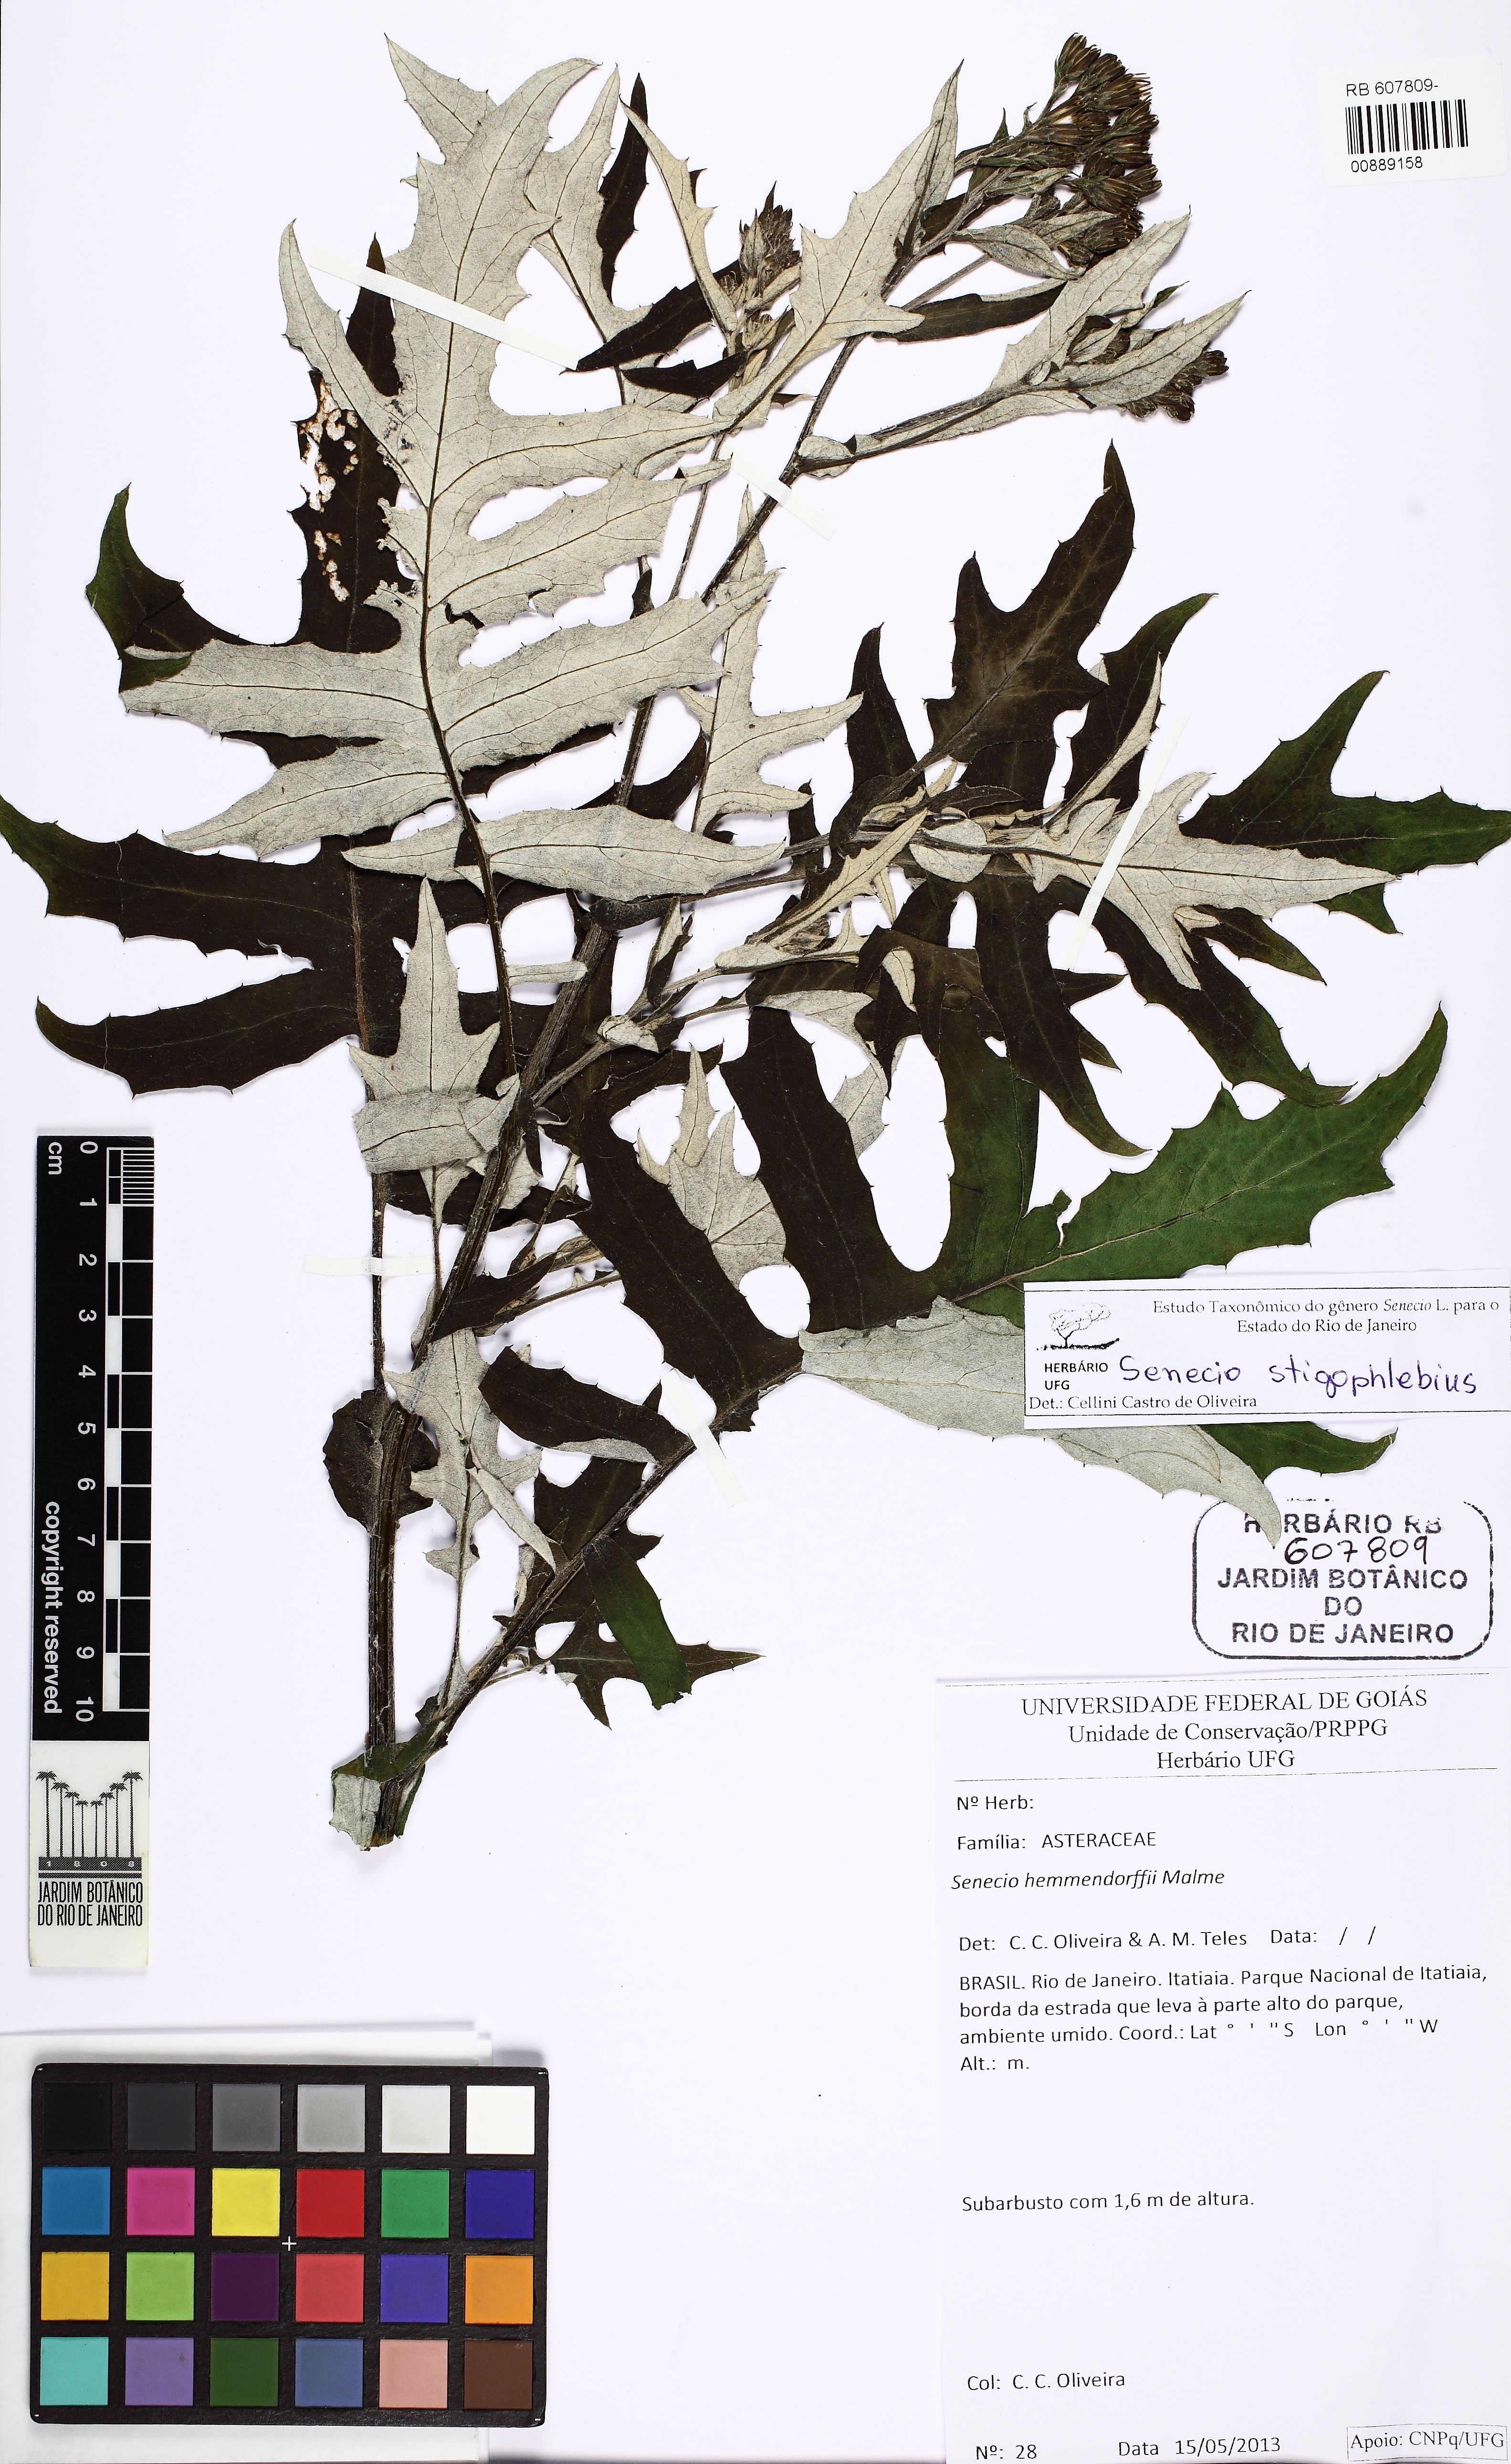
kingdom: Plantae
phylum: Tracheophyta
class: Magnoliopsida
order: Asterales
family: Asteraceae
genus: Senecio
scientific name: Senecio stigophlebius
